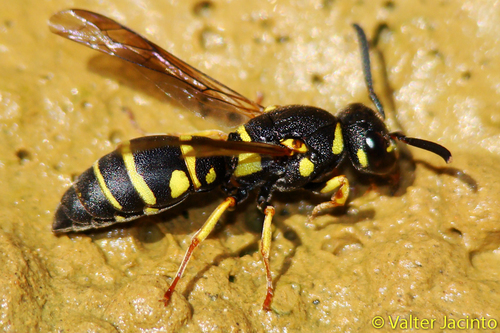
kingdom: Animalia
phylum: Arthropoda
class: Insecta
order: Hymenoptera
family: Eumenidae
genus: Syneuodynerus
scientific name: Syneuodynerus egregius
